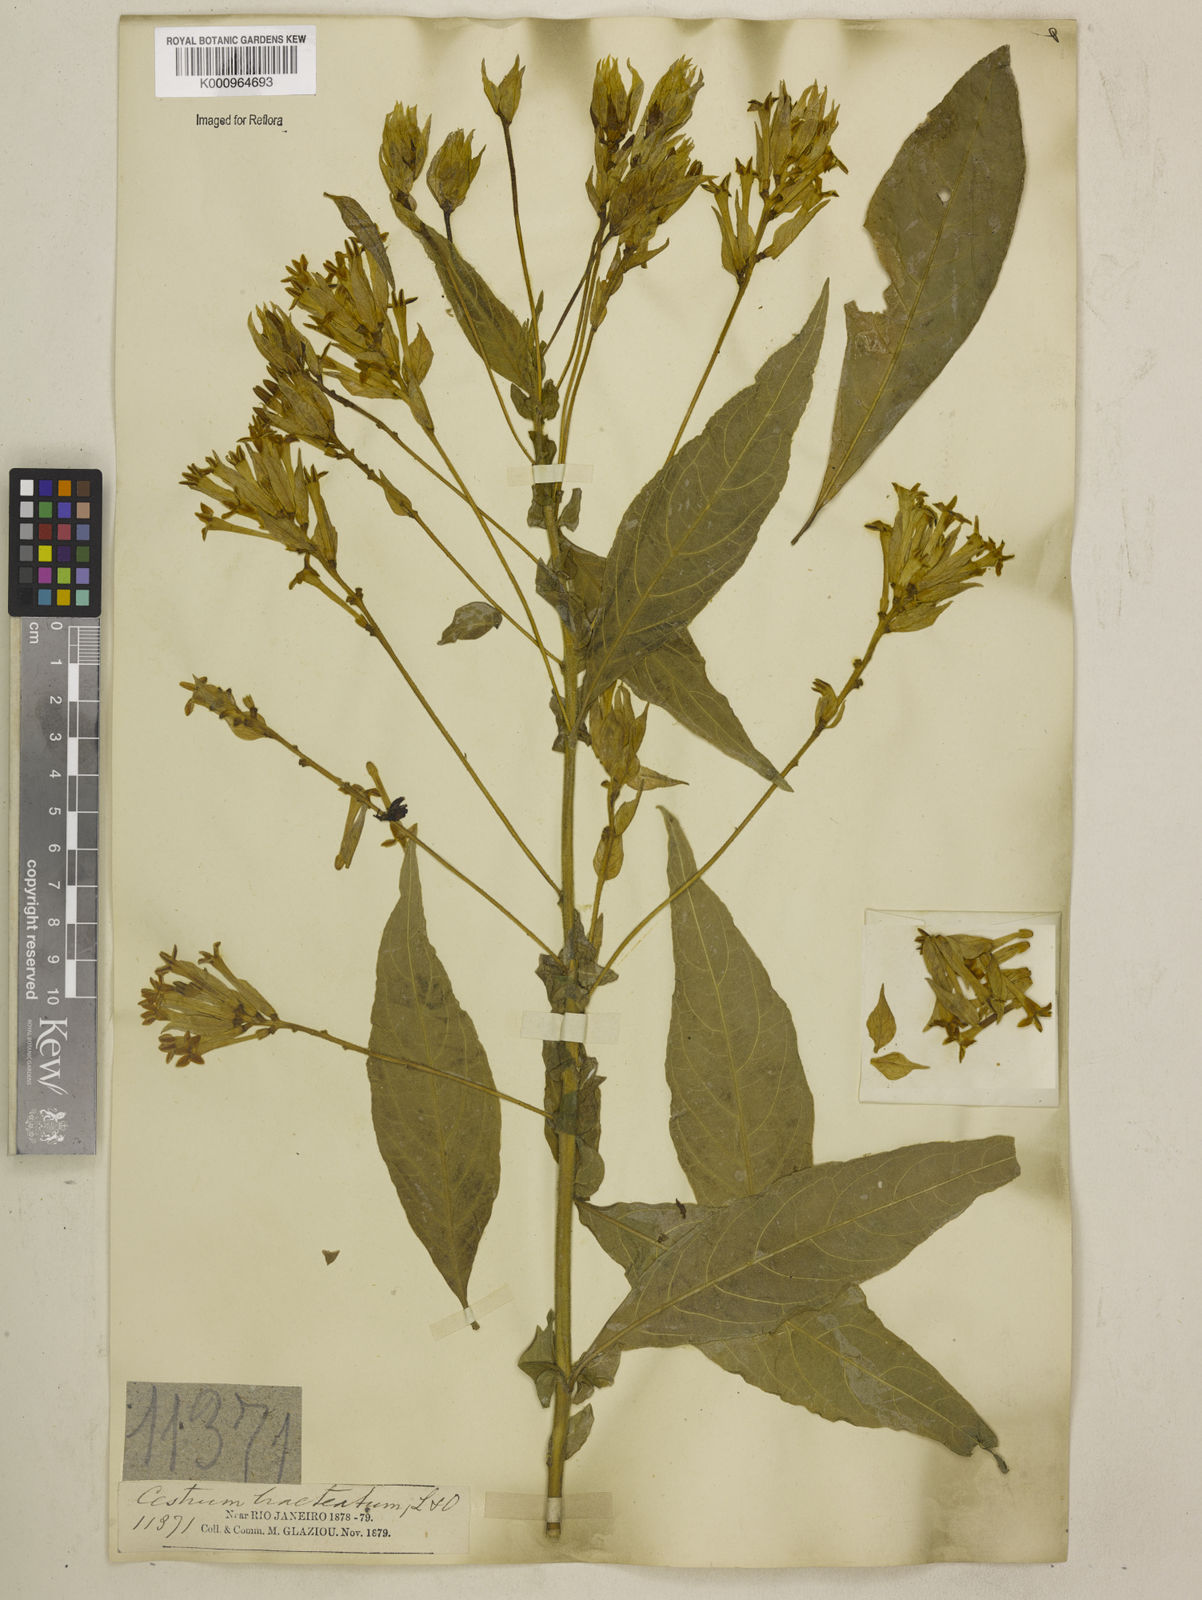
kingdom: Plantae
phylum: Tracheophyta
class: Magnoliopsida
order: Solanales
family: Solanaceae
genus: Cestrum
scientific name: Cestrum bracteatum
